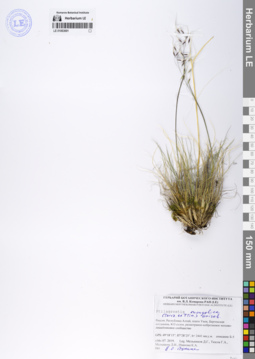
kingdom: Plantae
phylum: Tracheophyta
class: Liliopsida
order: Poales
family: Poaceae
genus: Ptilagrostis
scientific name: Ptilagrostis mongholica
